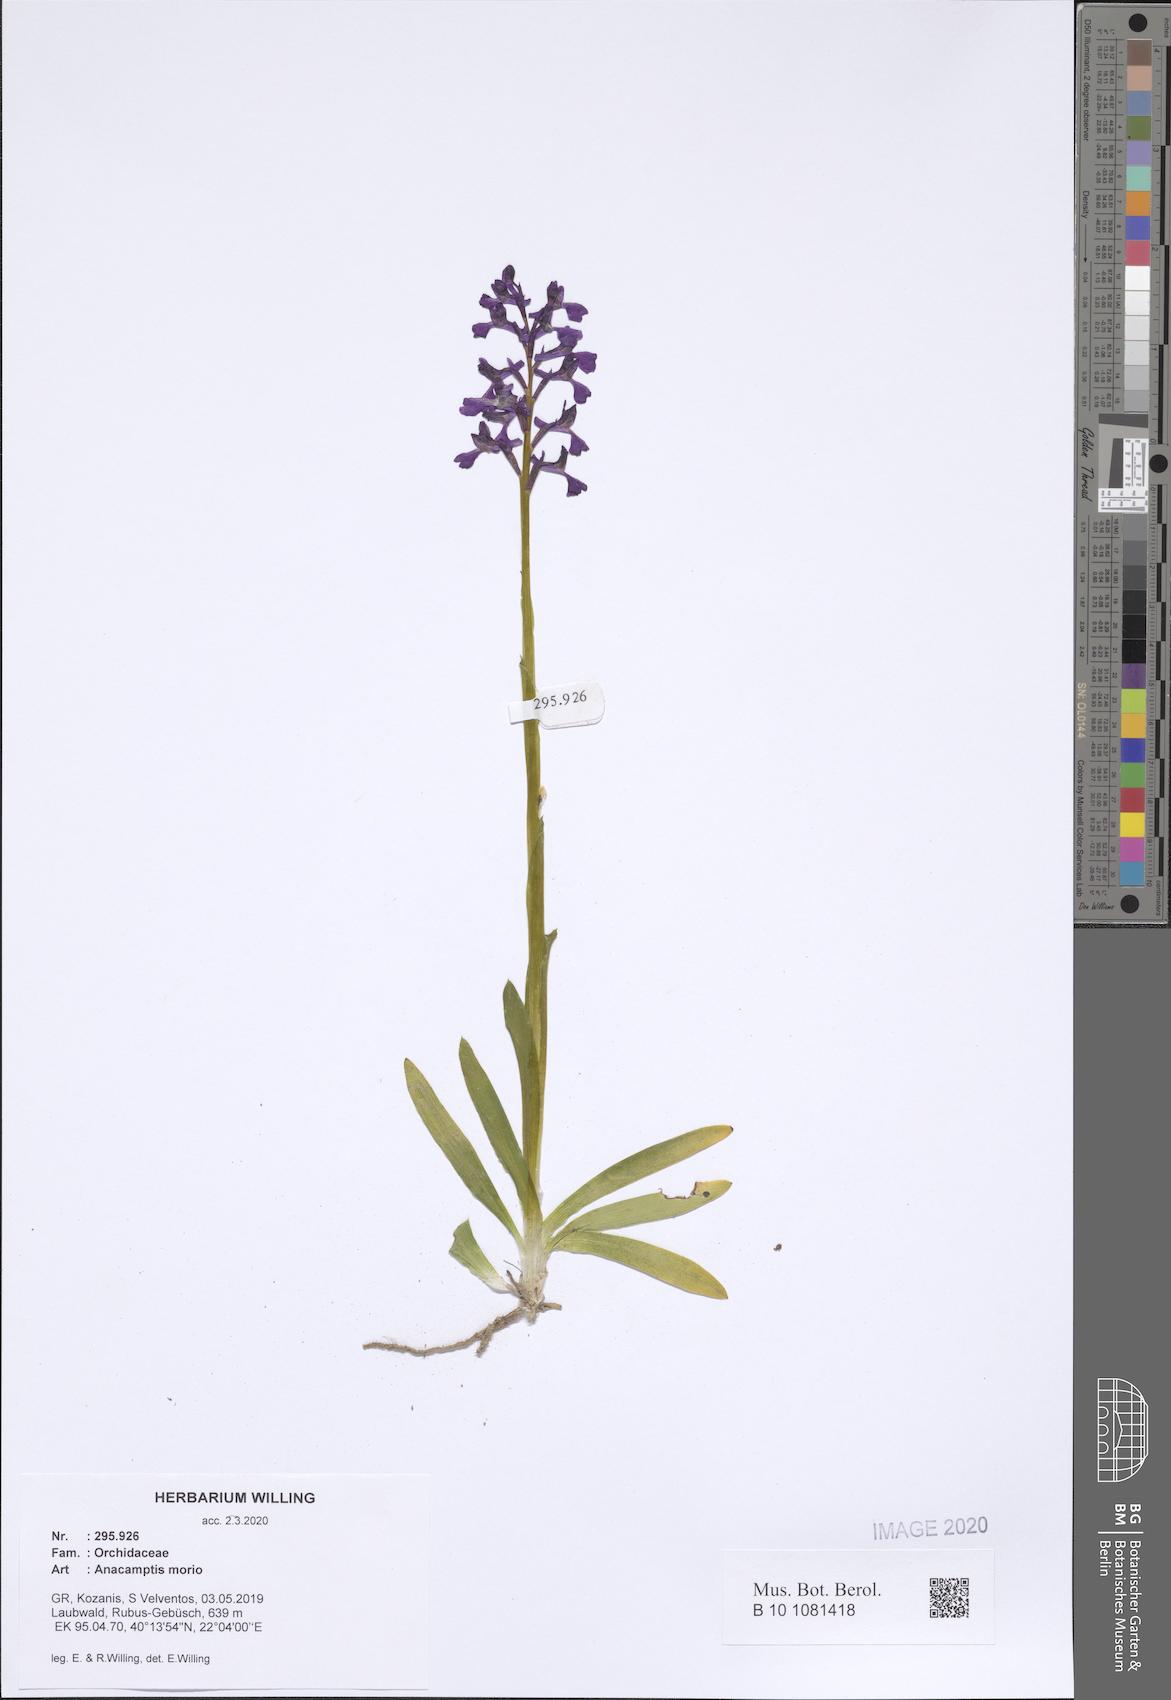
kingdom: Plantae
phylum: Tracheophyta
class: Liliopsida
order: Asparagales
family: Orchidaceae
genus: Anacamptis
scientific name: Anacamptis morio
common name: Green-winged orchid
